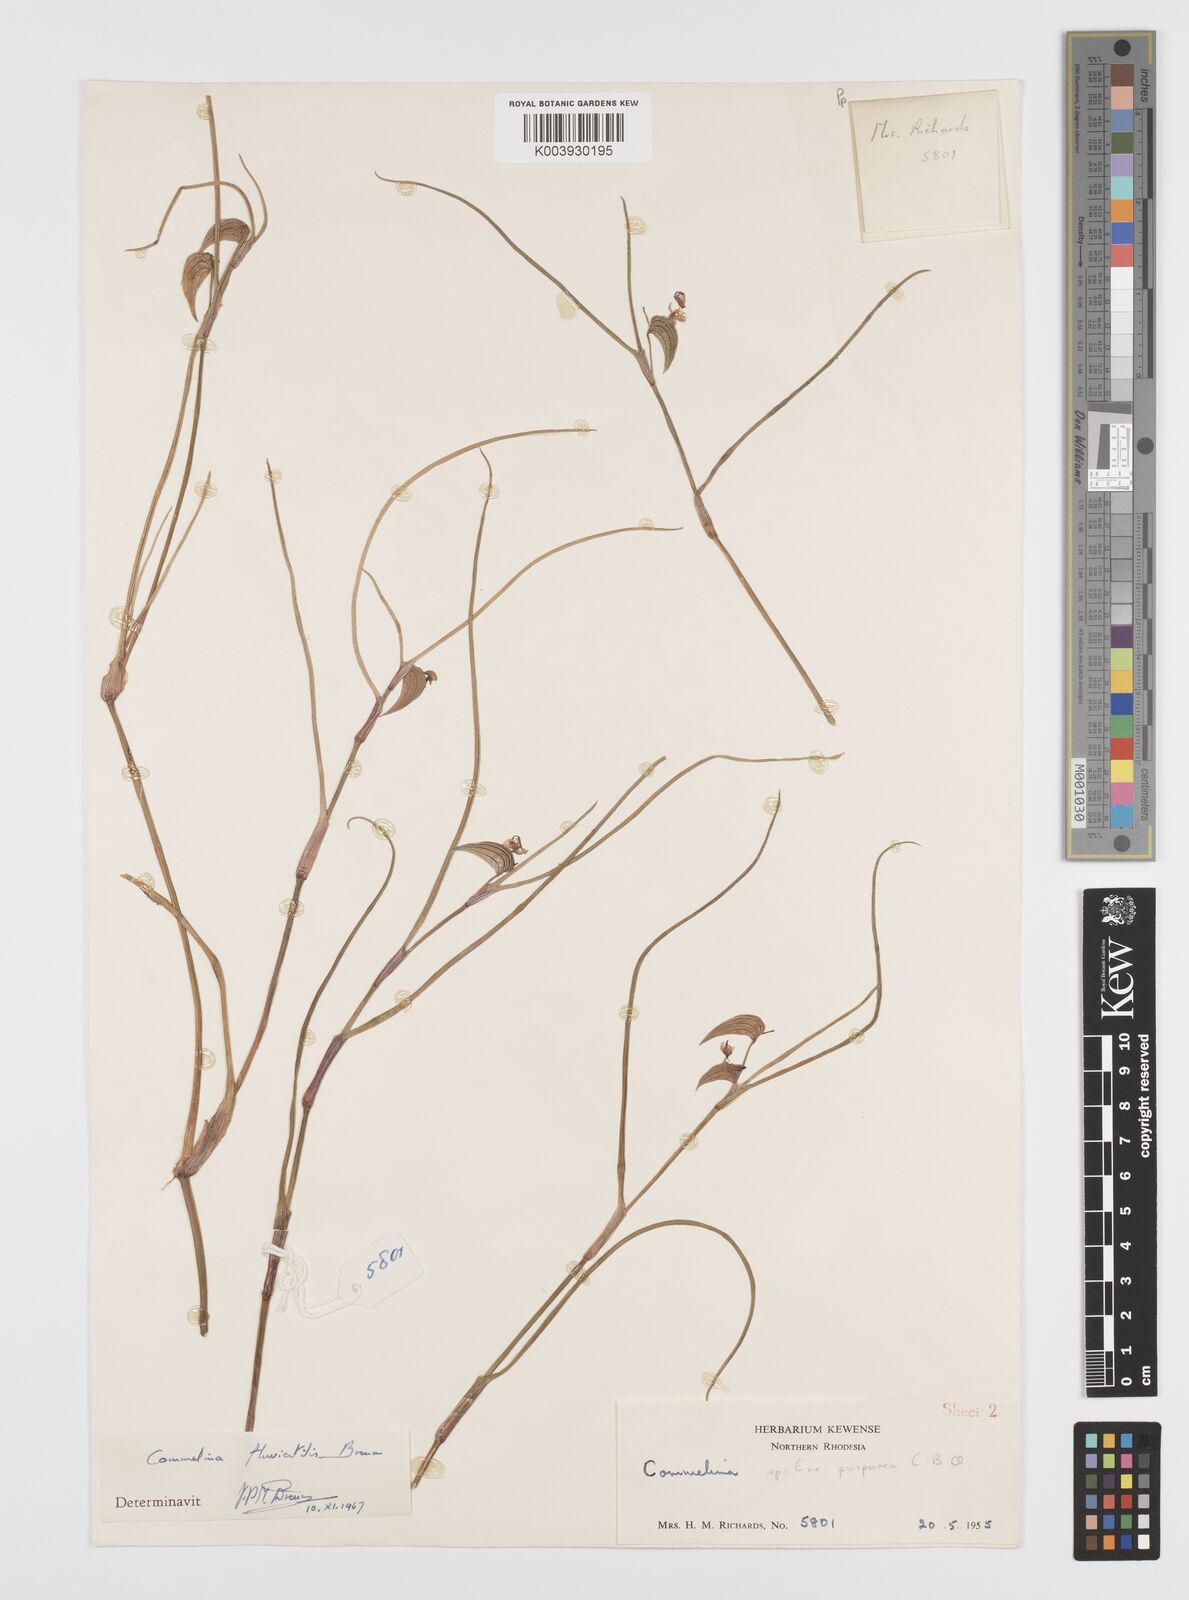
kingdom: Plantae
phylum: Tracheophyta
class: Liliopsida
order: Commelinales
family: Commelinaceae
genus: Commelina
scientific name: Commelina fluviatilis
